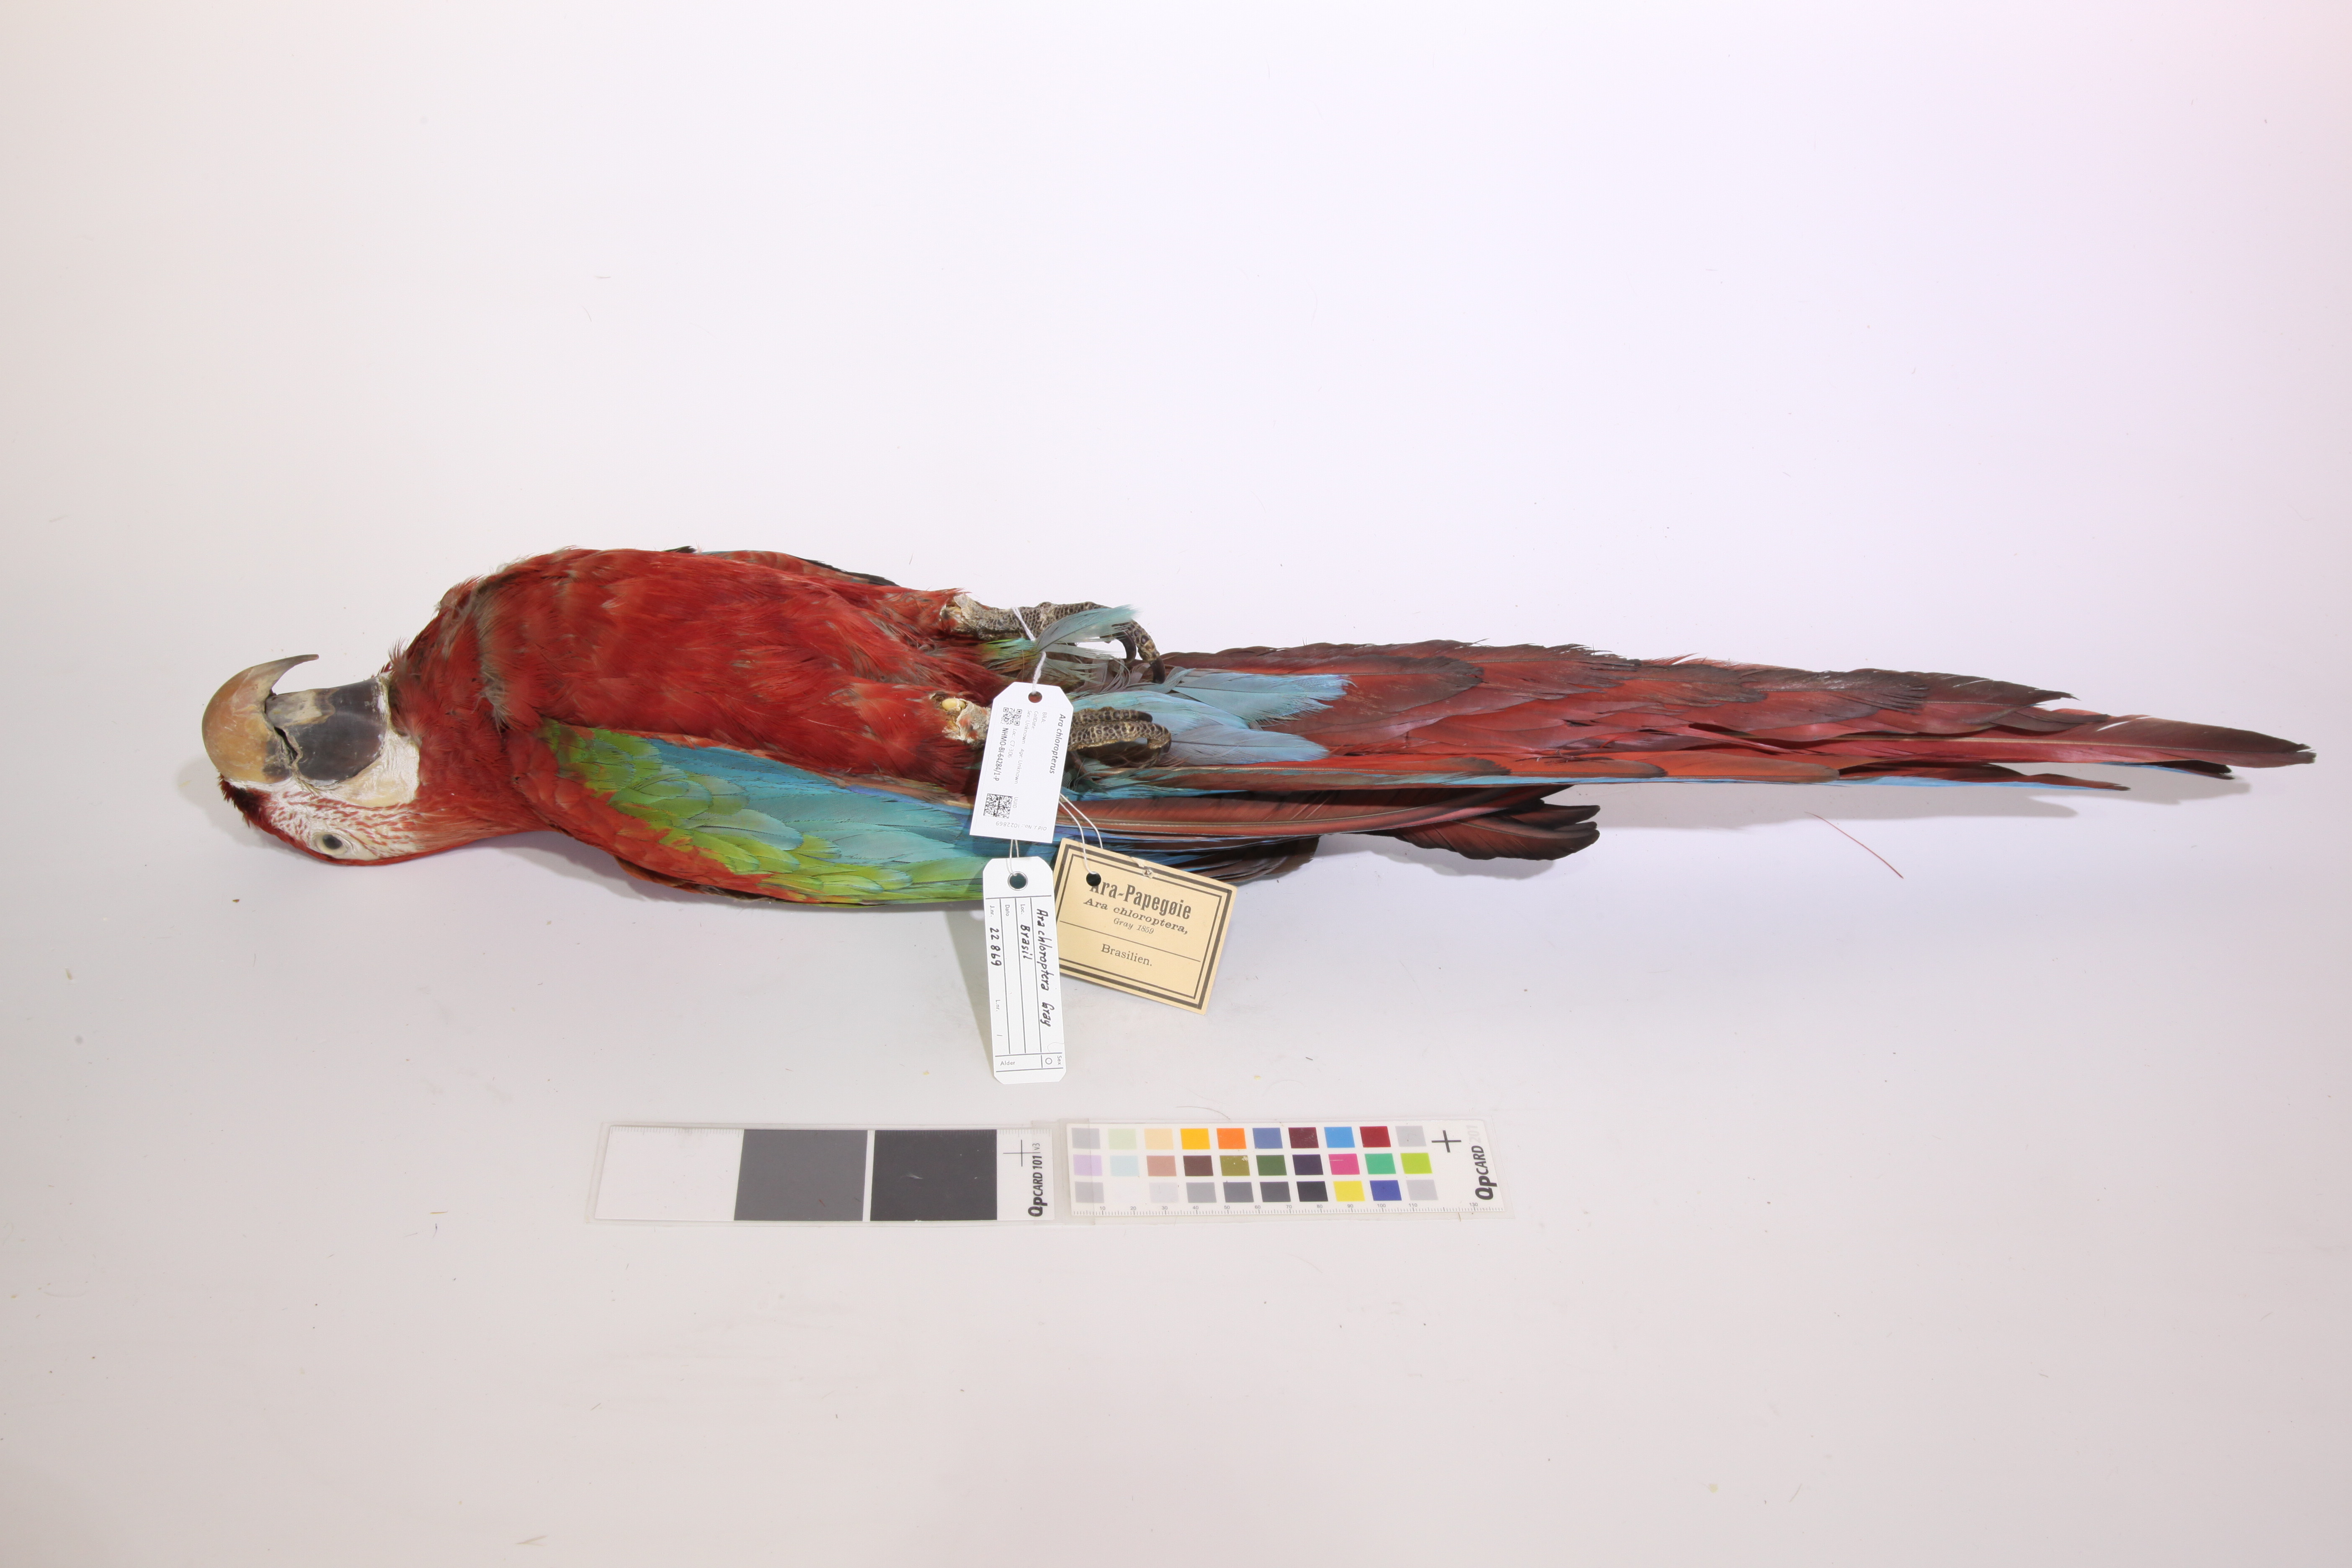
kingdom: Animalia
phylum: Chordata
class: Aves
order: Psittaciformes
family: Psittacidae
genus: Ara
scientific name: Ara chloropterus
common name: Red-and-green macaw
